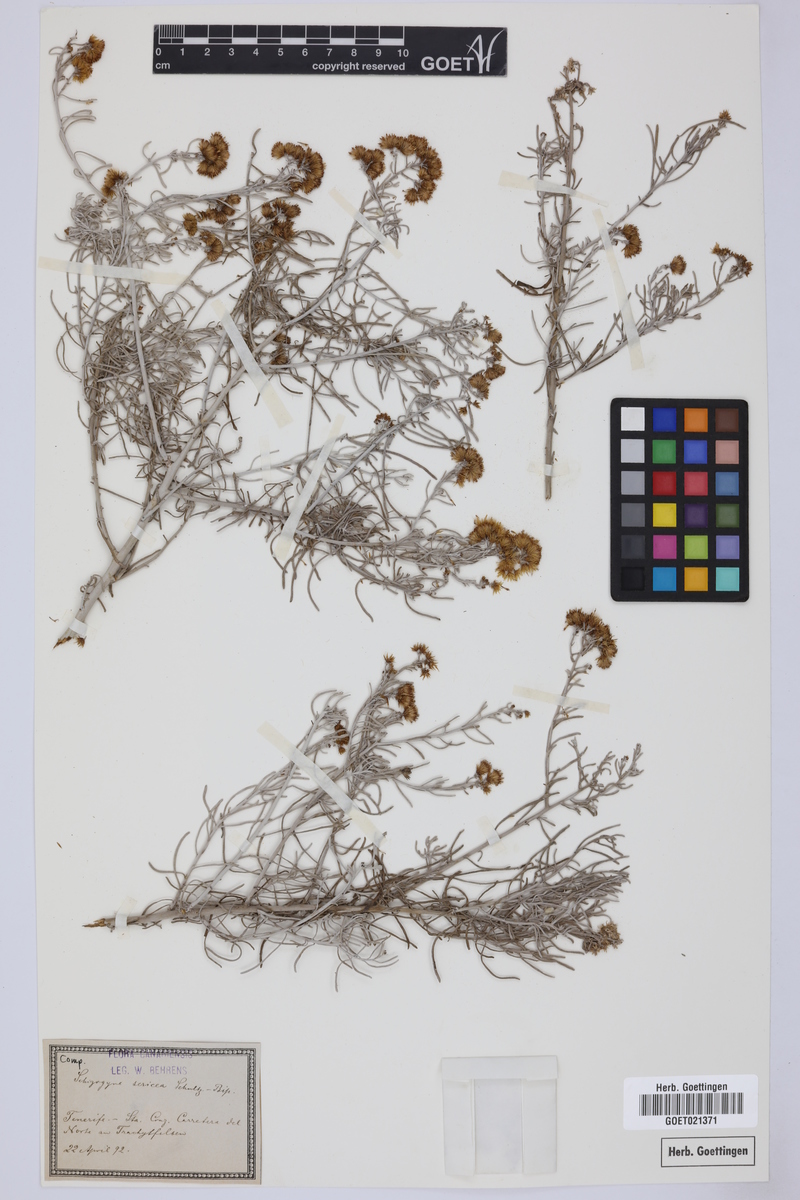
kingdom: Plantae
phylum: Tracheophyta
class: Magnoliopsida
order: Asterales
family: Asteraceae
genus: Schizogyne
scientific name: Schizogyne sericea
